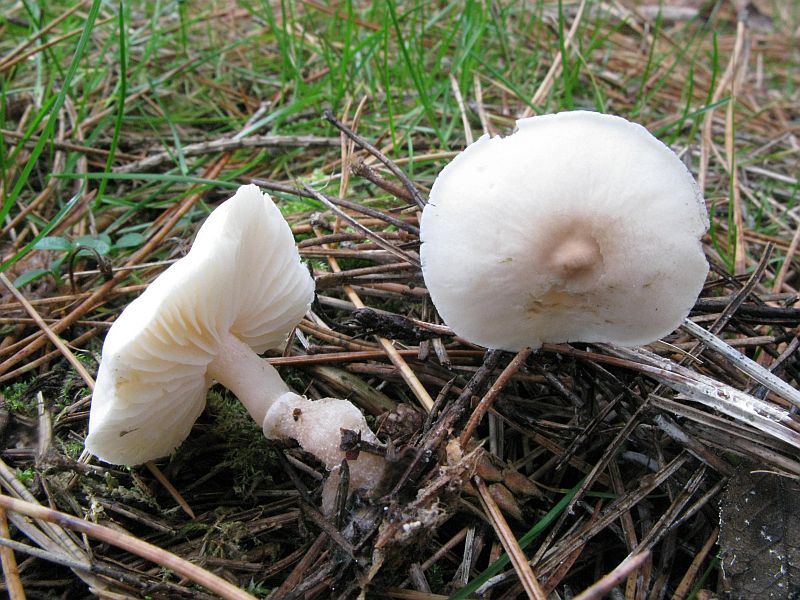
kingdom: Fungi
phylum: Basidiomycota
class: Agaricomycetes
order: Agaricales
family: Tricholomataceae
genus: Cystoderma
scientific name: Cystoderma carcharias
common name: rødgrå grynhat
